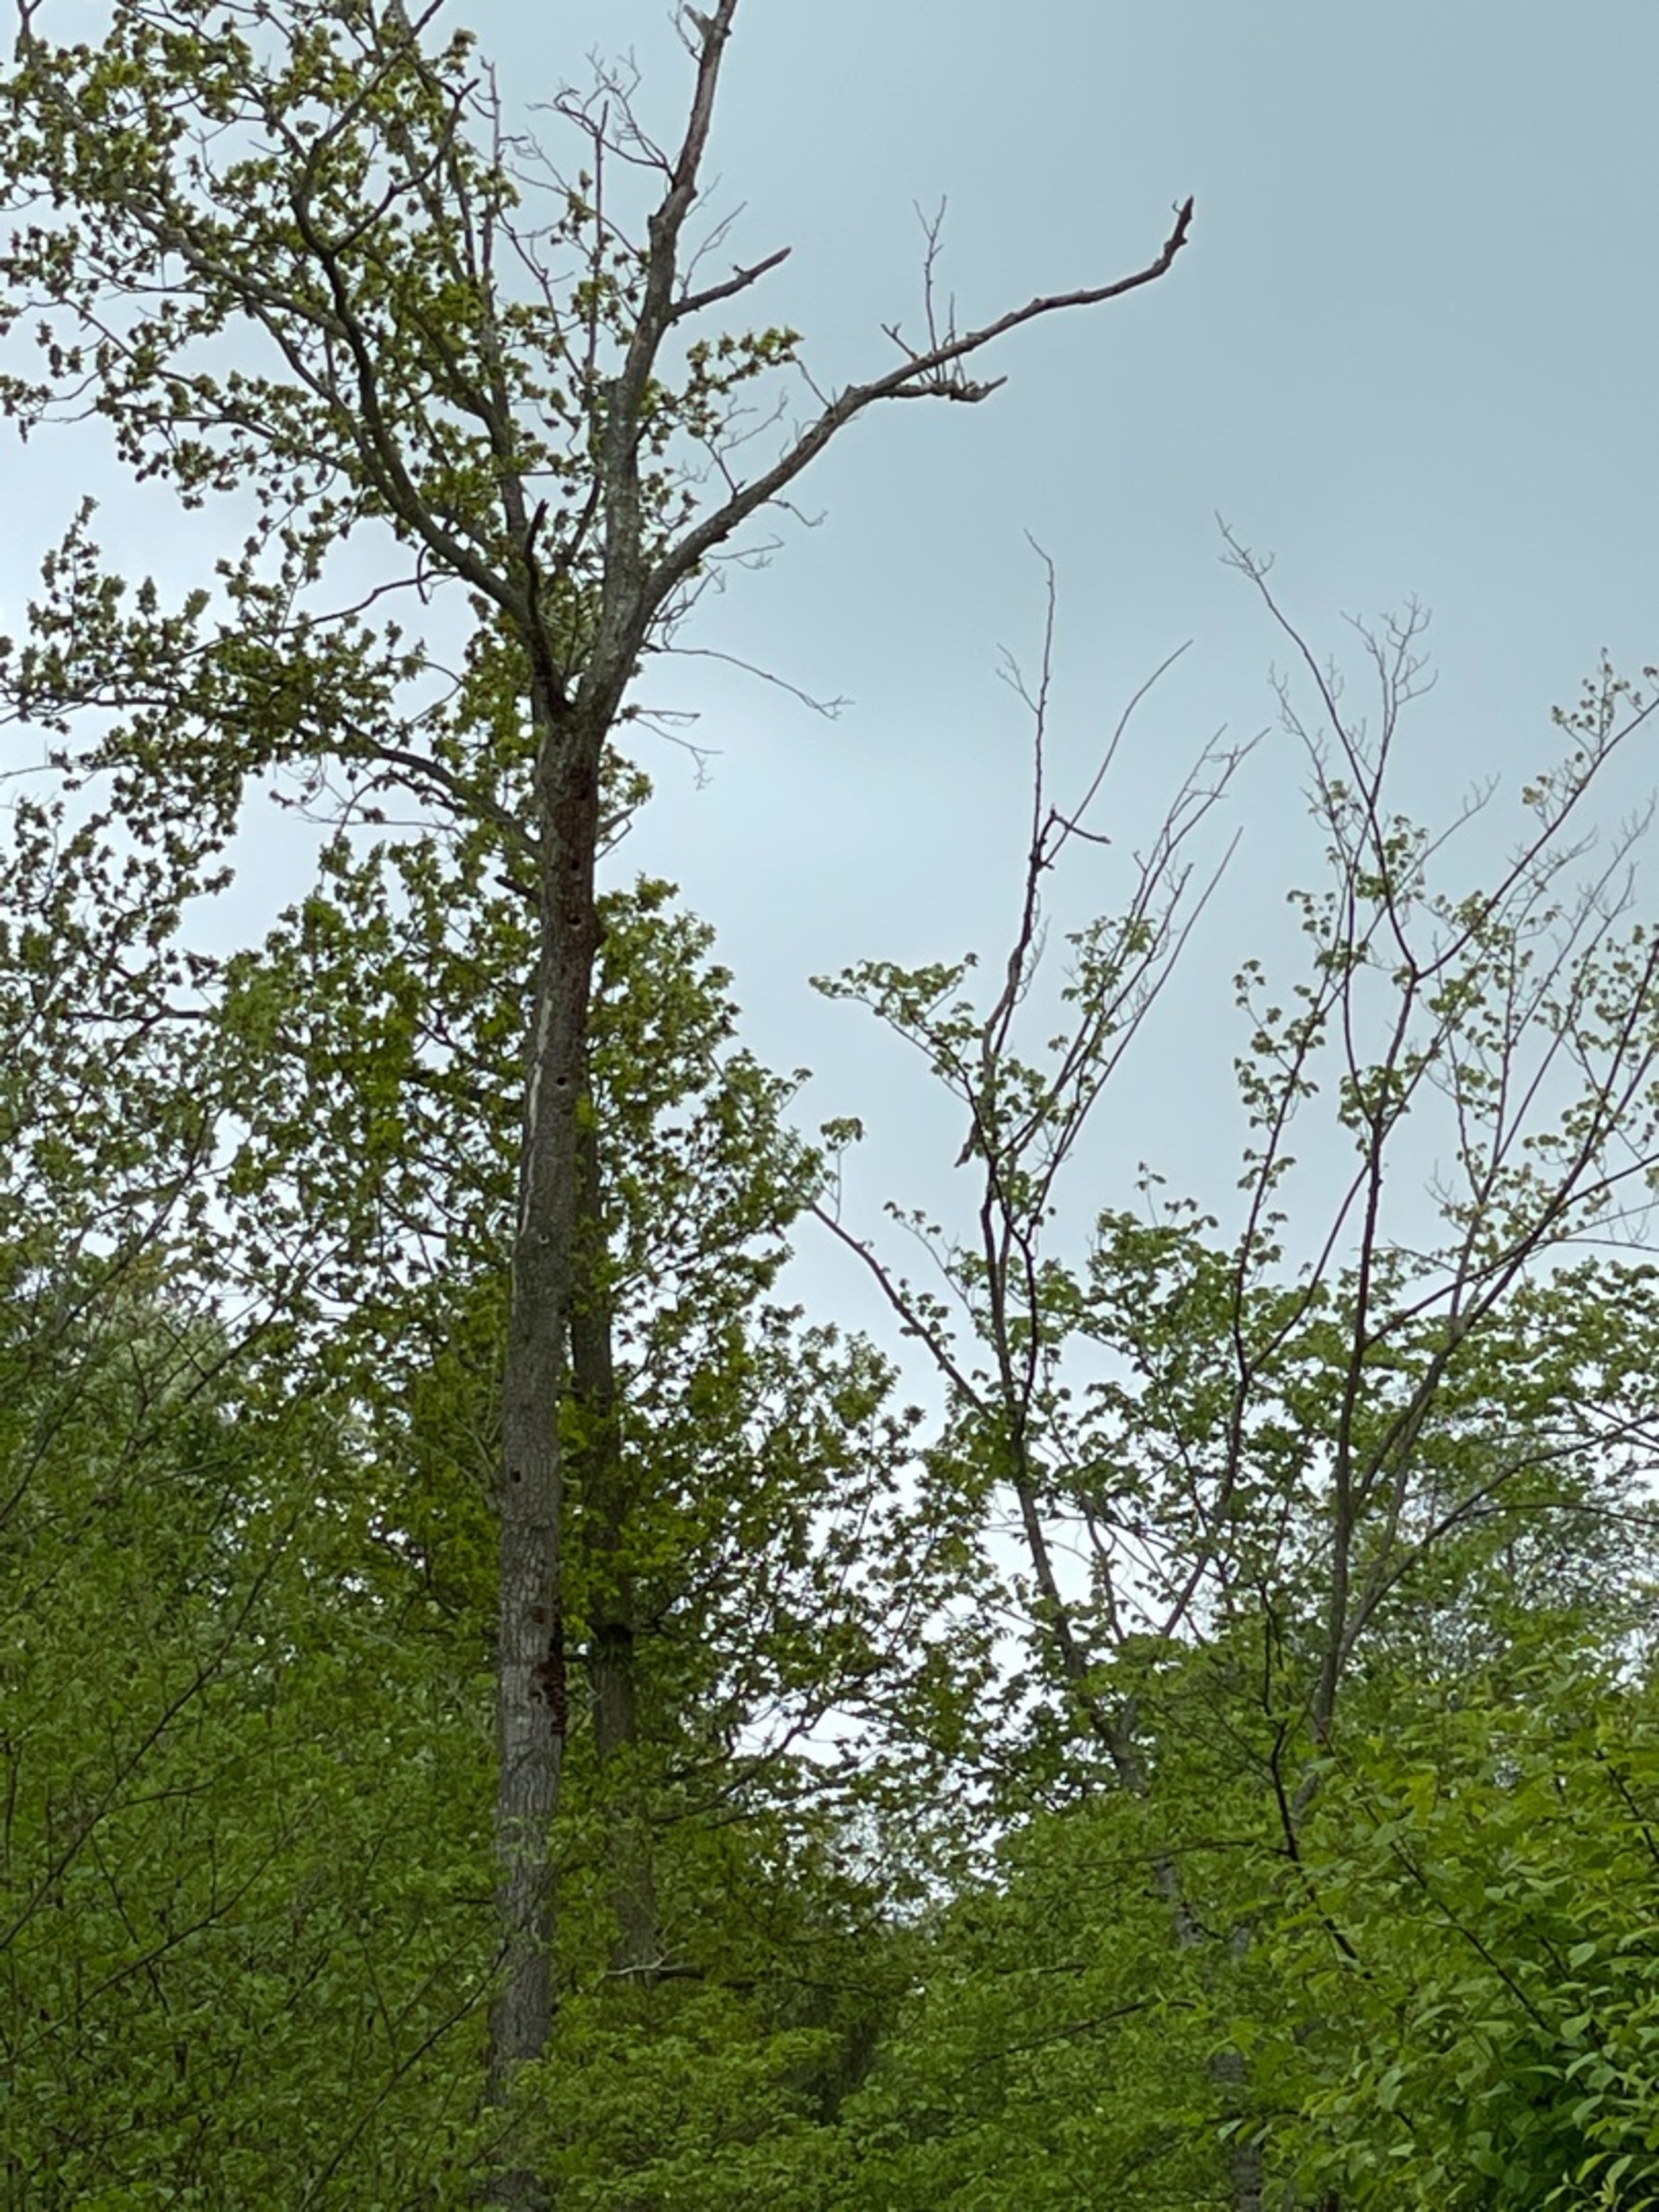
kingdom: Animalia
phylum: Chordata
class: Aves
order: Piciformes
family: Picidae
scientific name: Picidae
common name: Spætter
